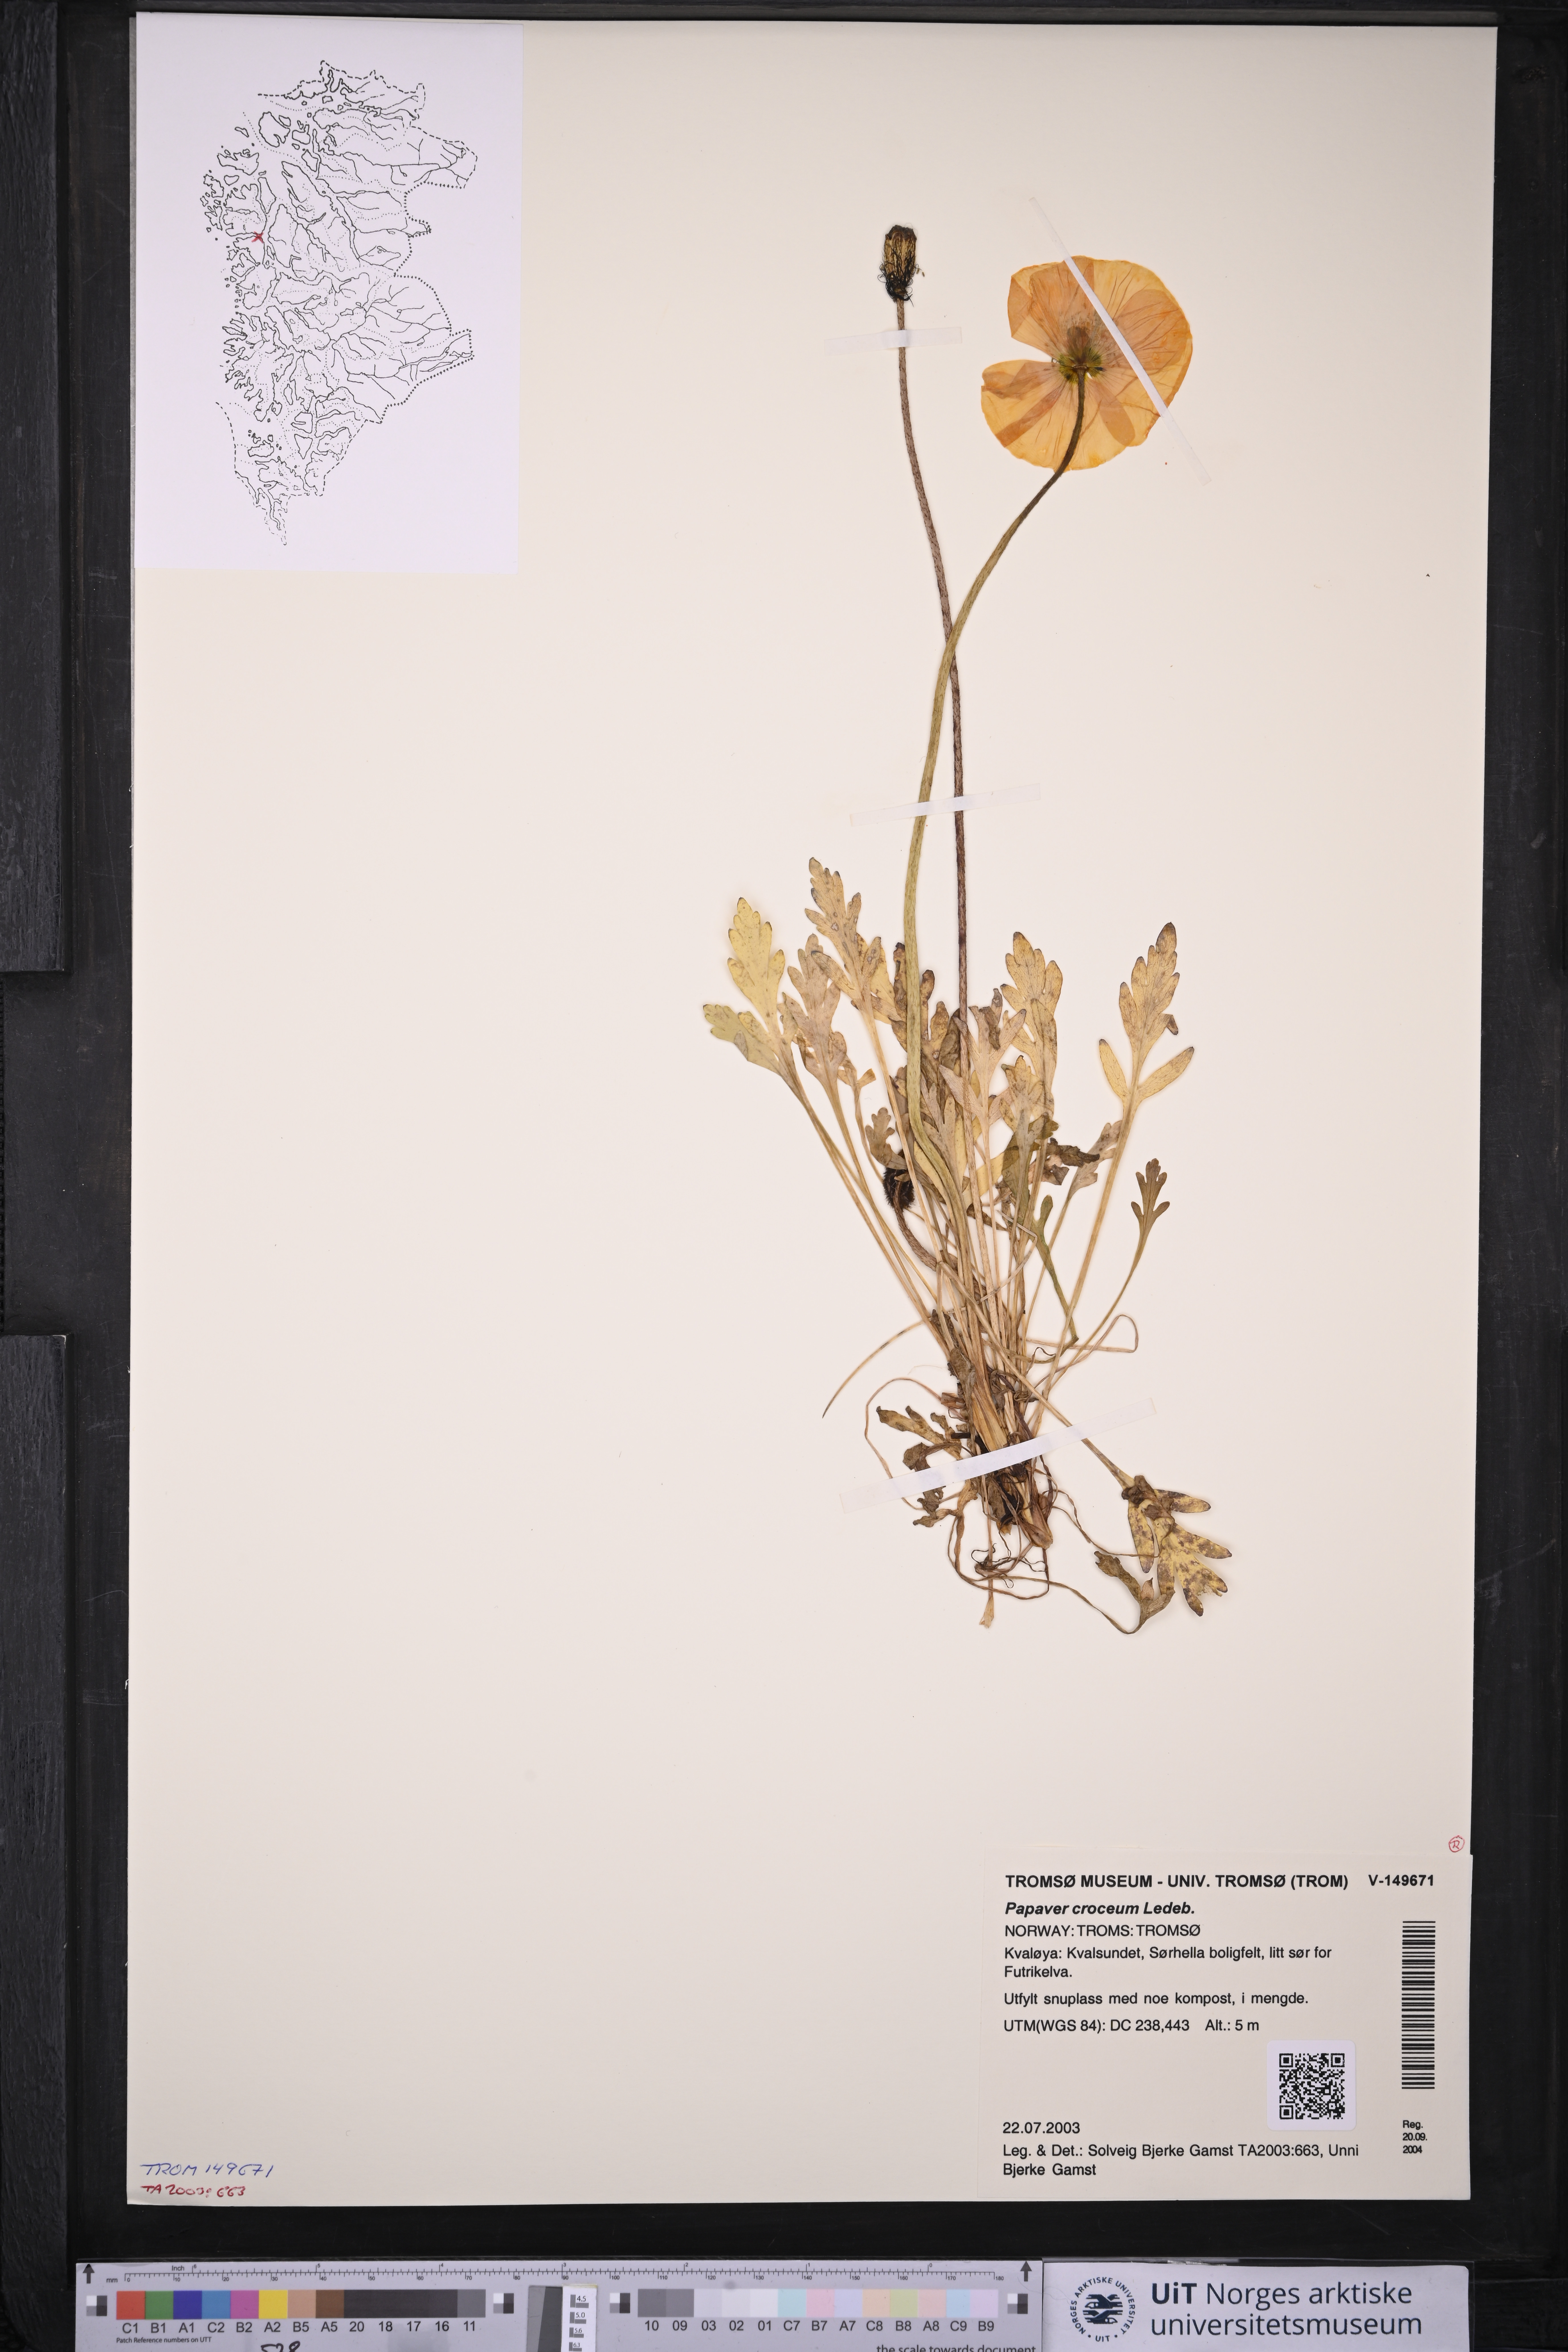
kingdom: Plantae
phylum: Tracheophyta
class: Magnoliopsida
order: Ranunculales
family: Papaveraceae
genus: Papaver
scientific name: Papaver croceum
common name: Siberian poppy
